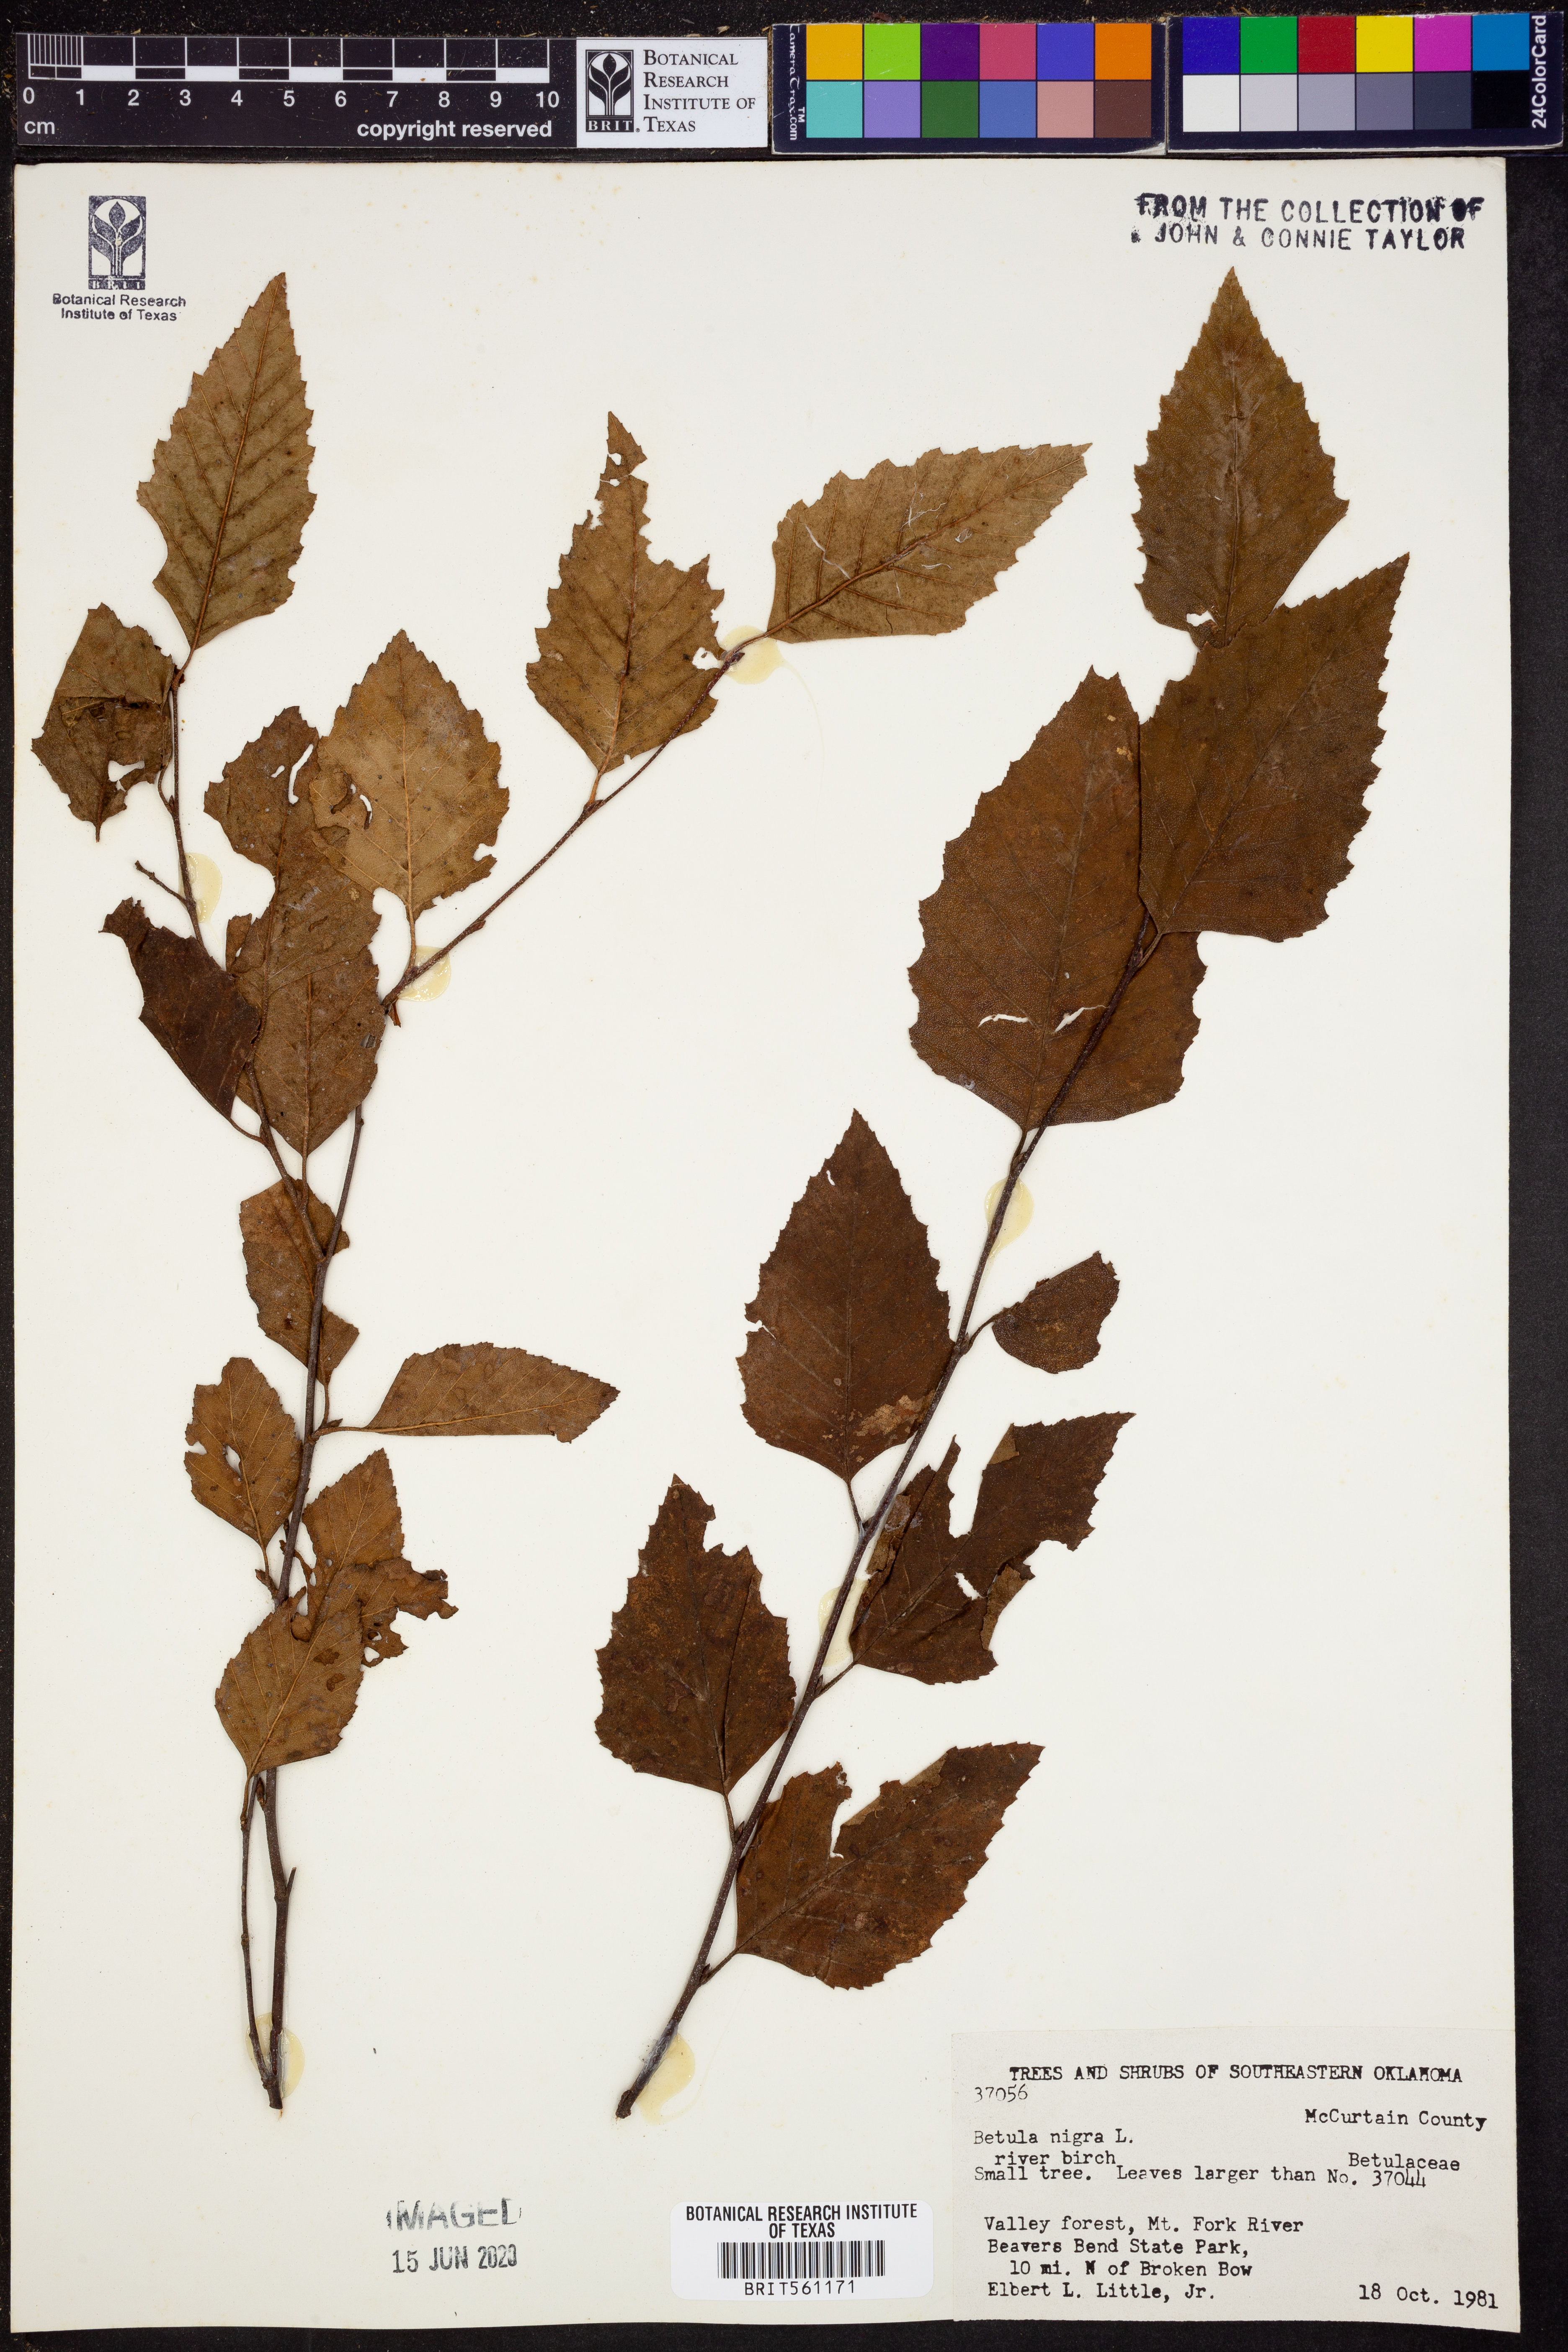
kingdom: Plantae
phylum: Tracheophyta
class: Magnoliopsida
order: Fagales
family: Betulaceae
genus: Betula
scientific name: Betula nigra
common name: Black birch
